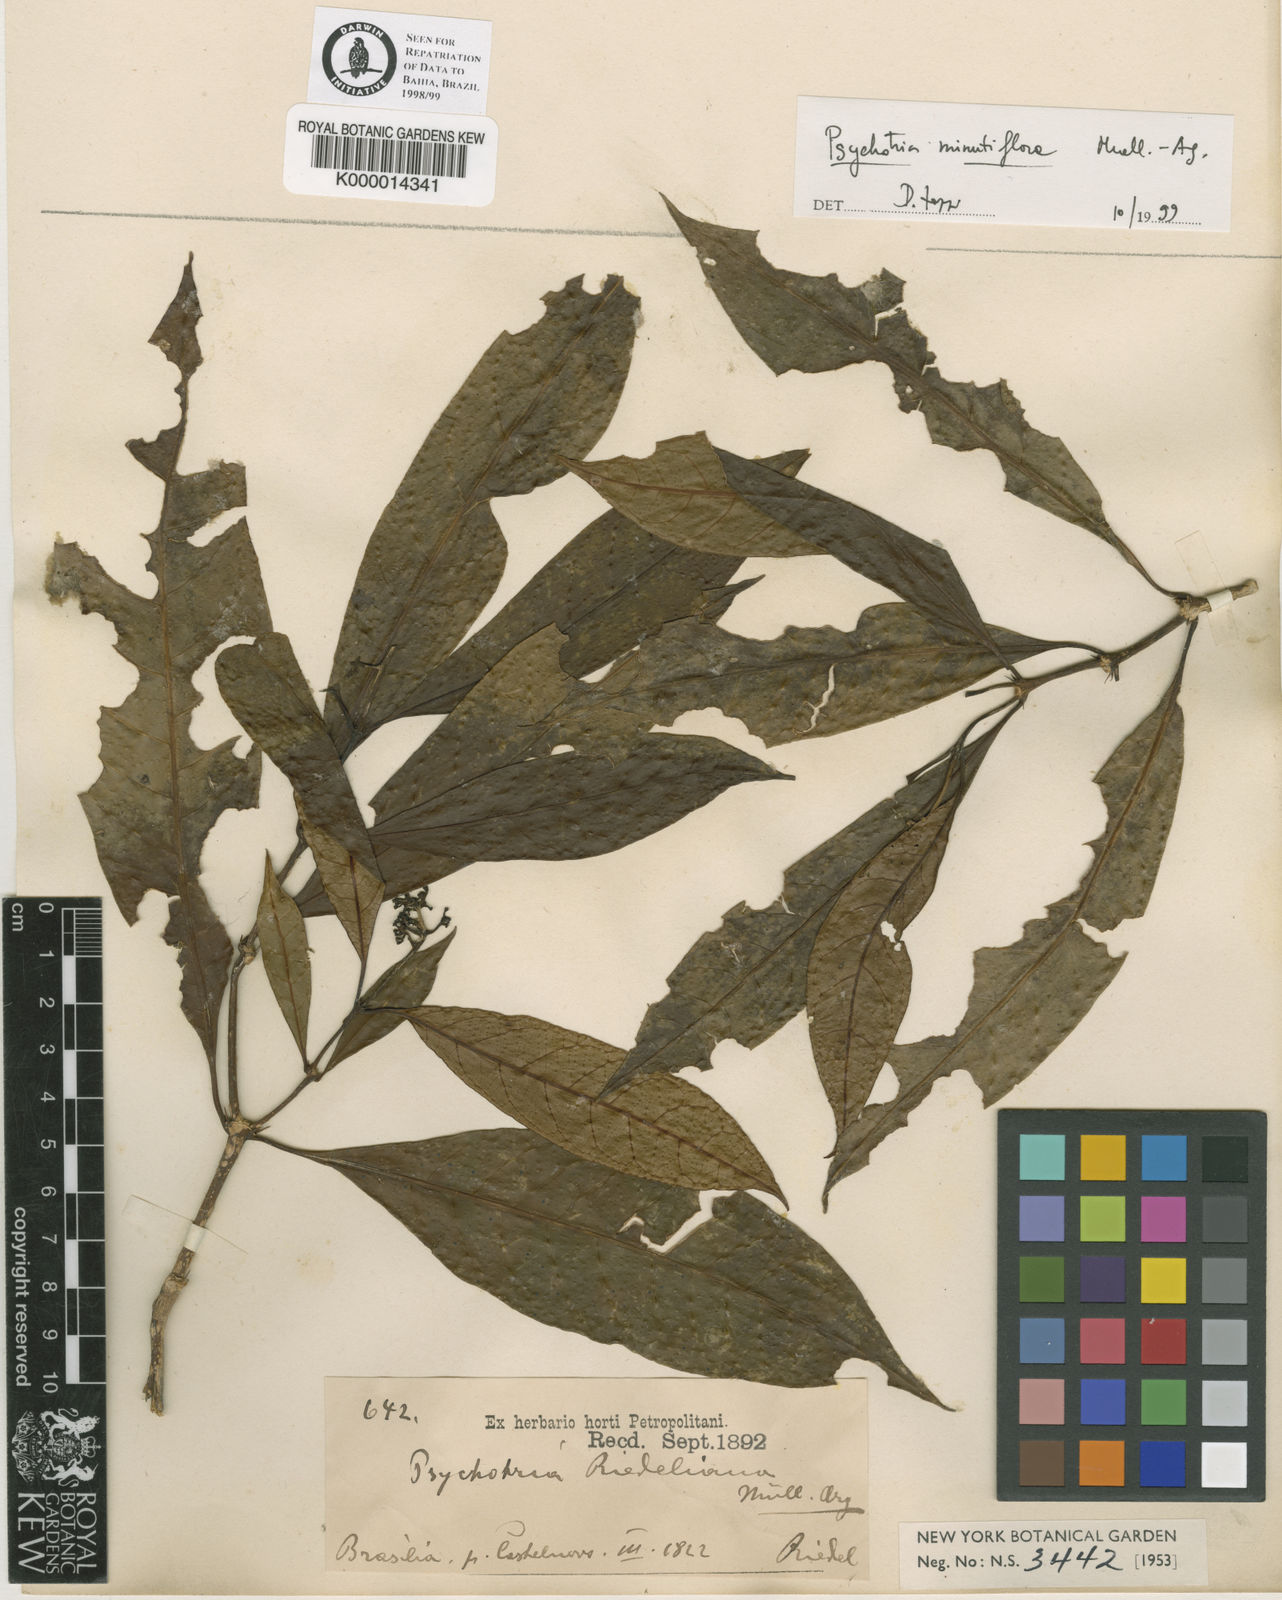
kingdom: Plantae
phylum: Tracheophyta
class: Magnoliopsida
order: Gentianales
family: Rubiaceae
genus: Palicourea
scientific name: Palicourea minutiflora
